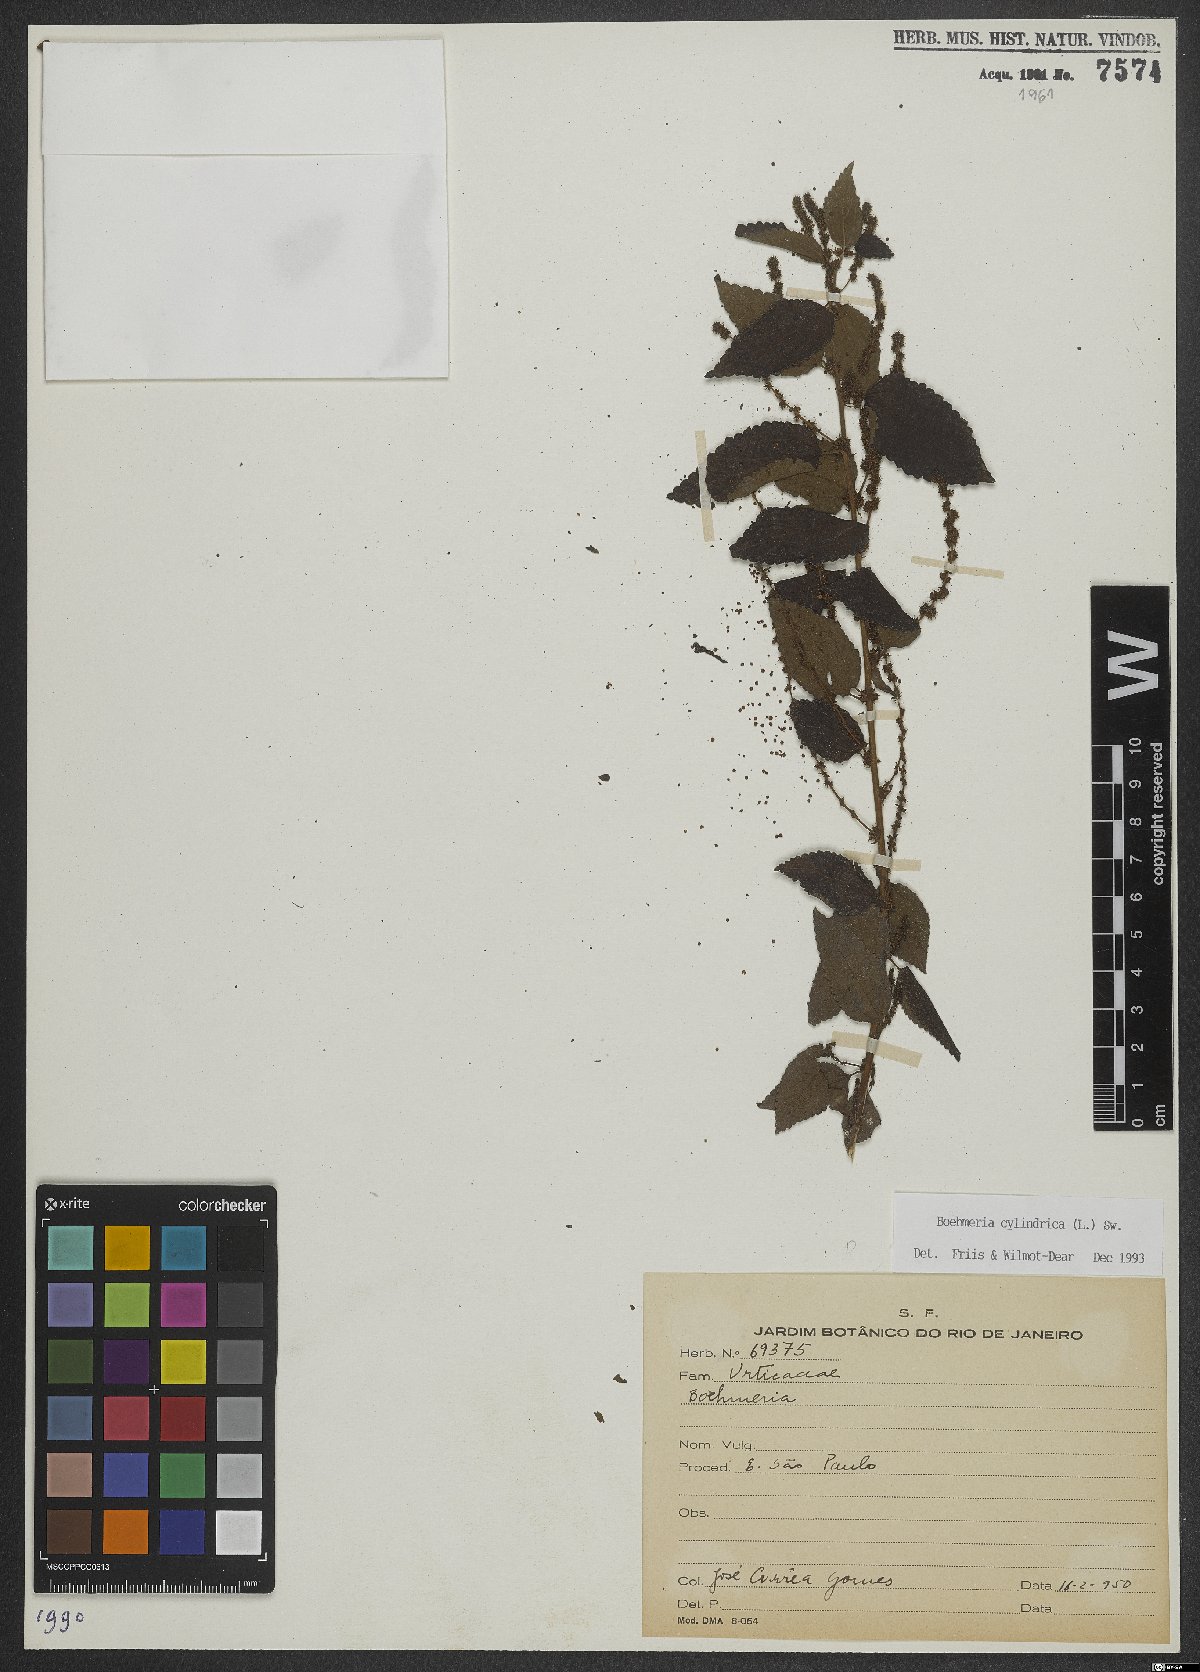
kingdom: Plantae
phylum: Tracheophyta
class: Magnoliopsida
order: Rosales
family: Urticaceae
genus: Boehmeria
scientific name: Boehmeria cylindrica
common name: Bog-hemp
